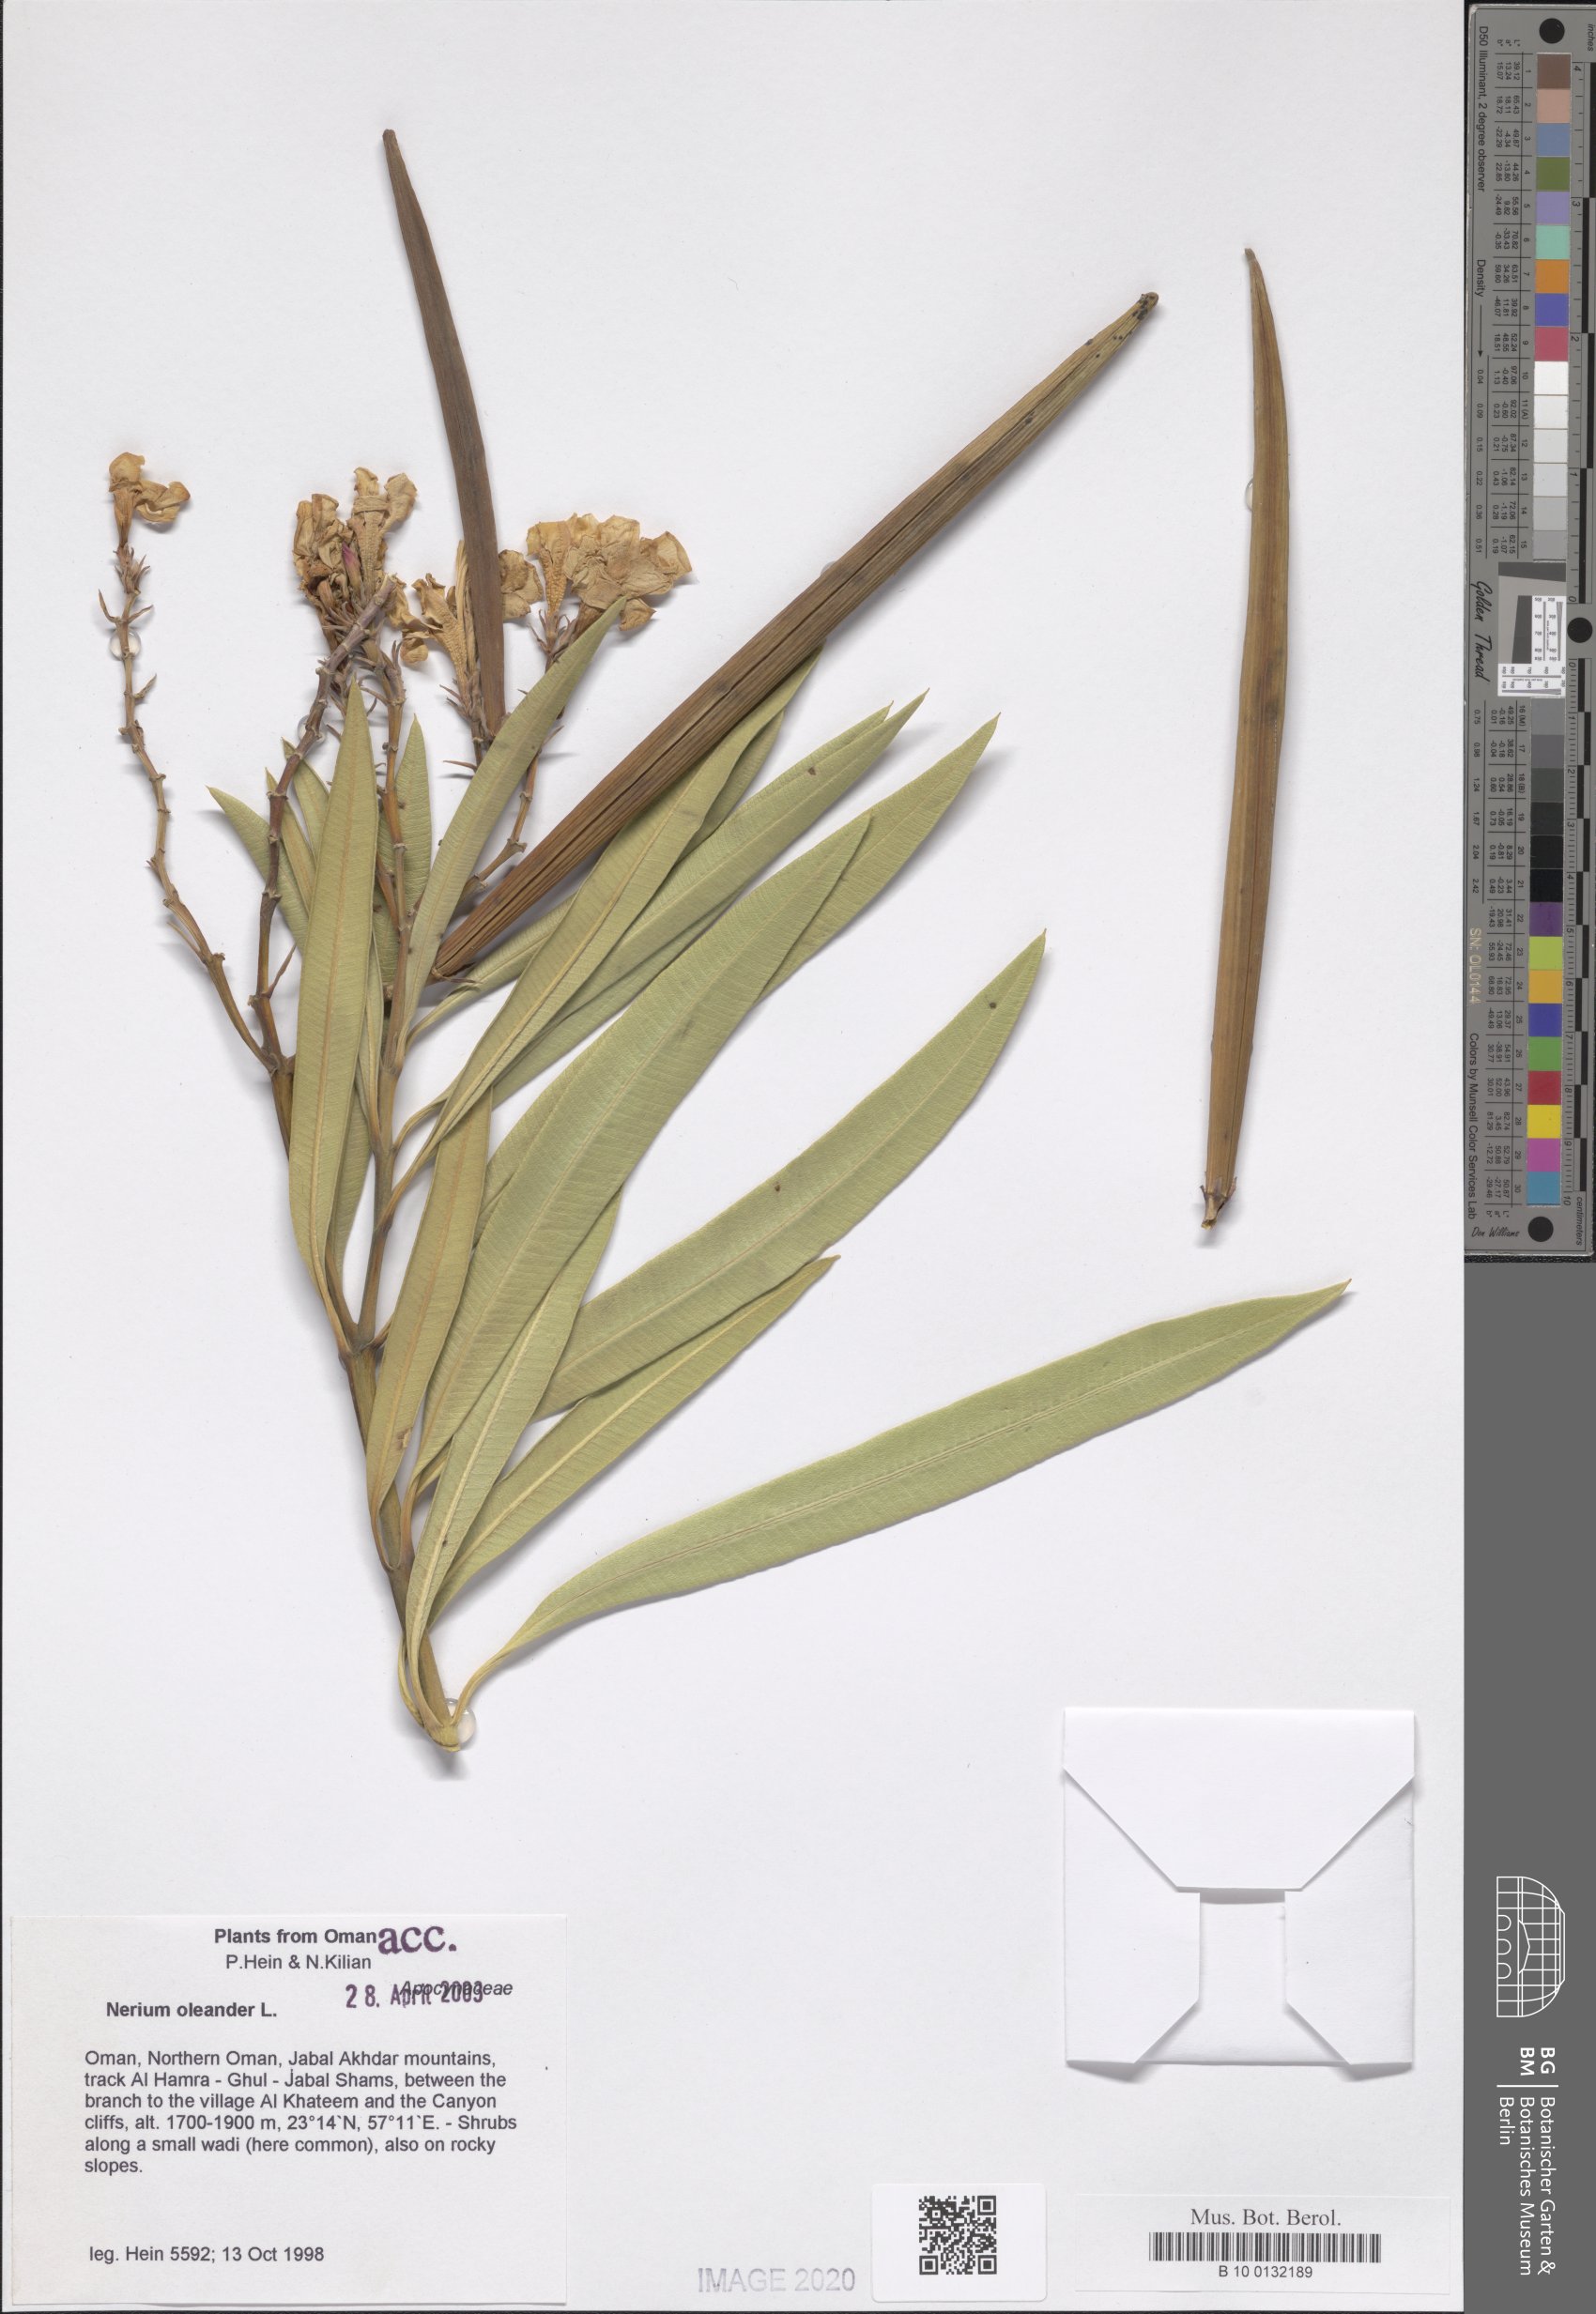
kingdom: Plantae
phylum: Tracheophyta
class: Magnoliopsida
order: Gentianales
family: Apocynaceae
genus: Nerium
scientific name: Nerium oleander
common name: Oleander
